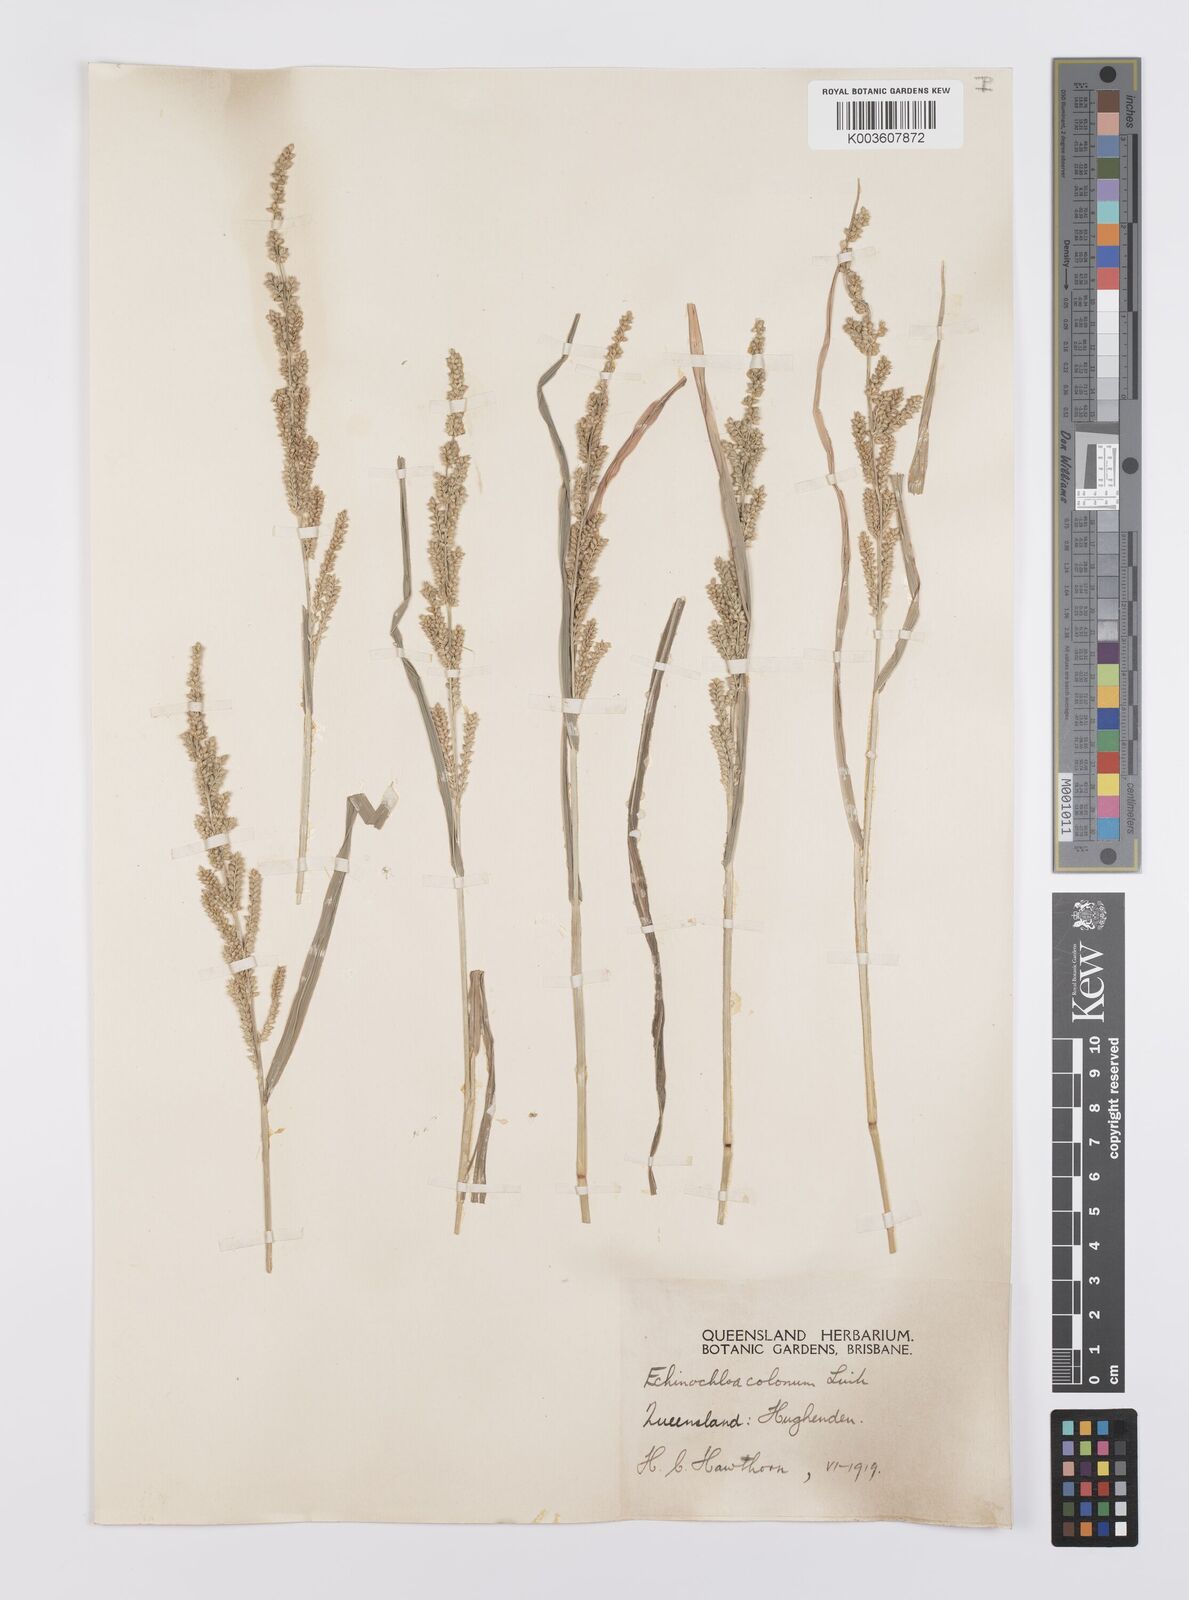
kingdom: Plantae
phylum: Tracheophyta
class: Liliopsida
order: Poales
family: Poaceae
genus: Echinochloa
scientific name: Echinochloa colonum
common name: Jungle rice
